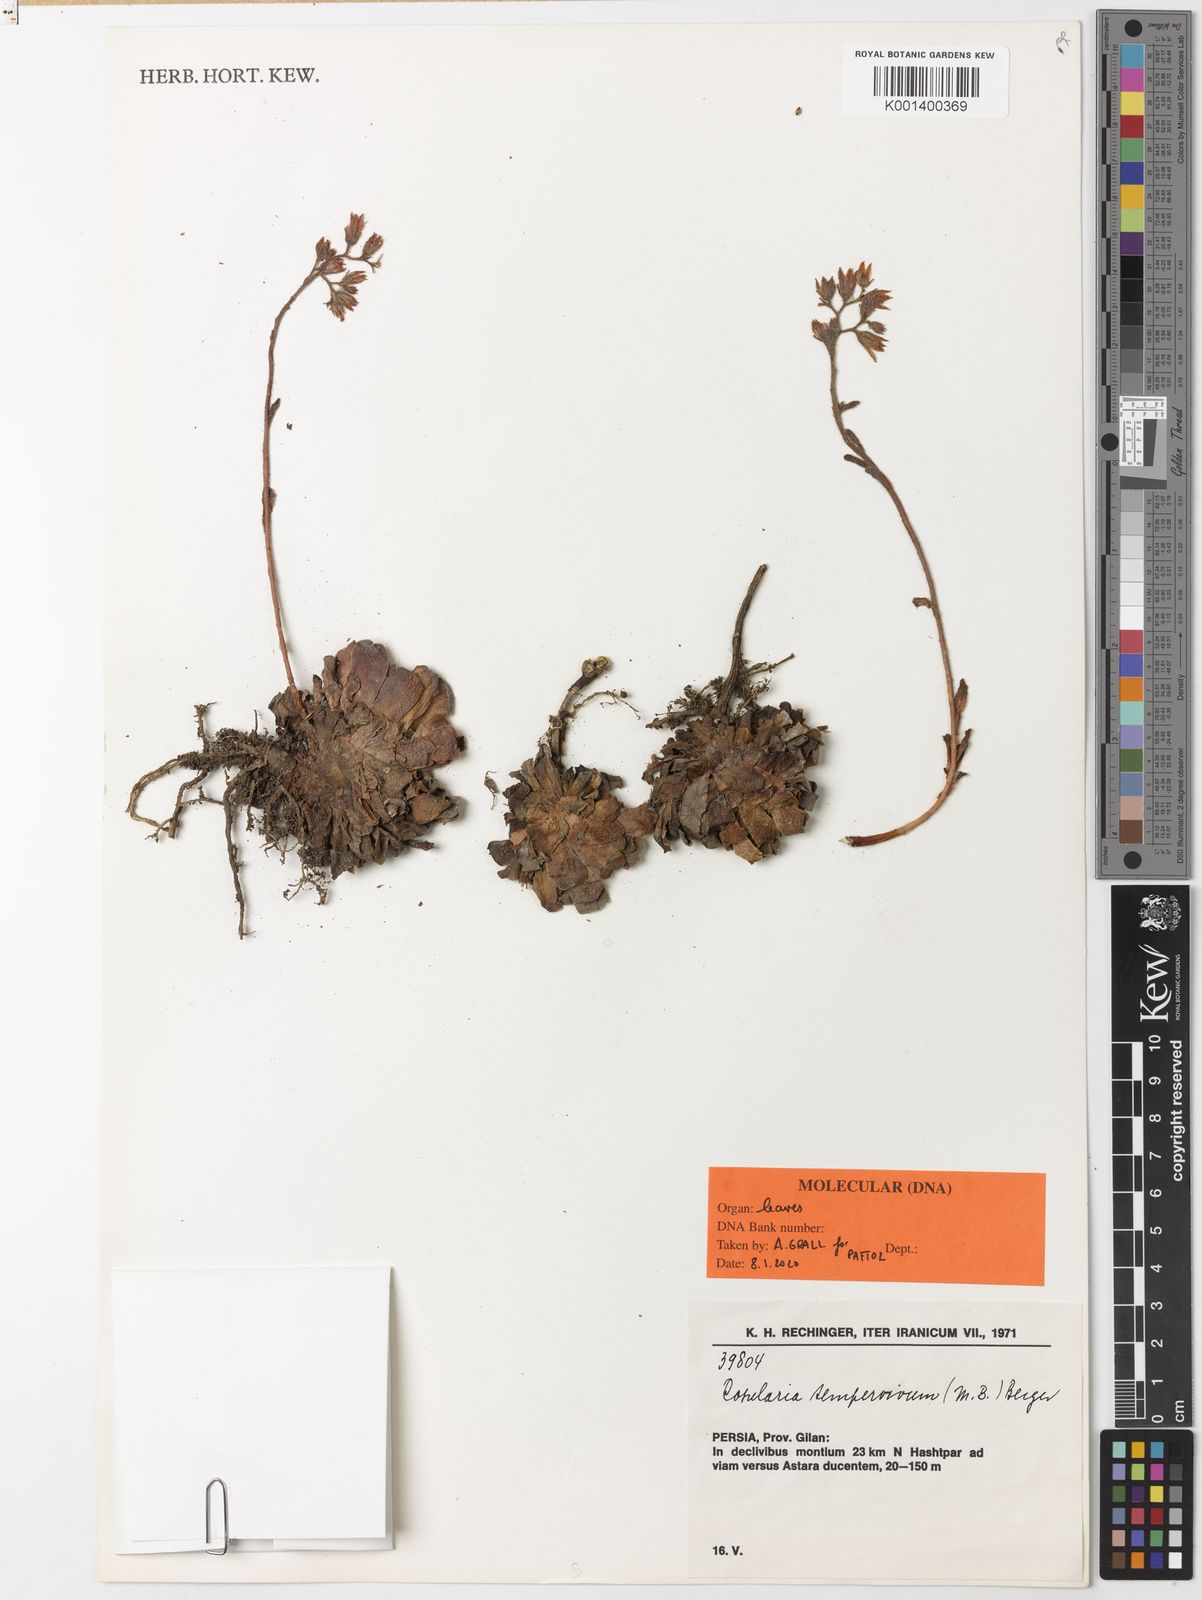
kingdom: Plantae
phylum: Tracheophyta
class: Magnoliopsida
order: Saxifragales
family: Crassulaceae
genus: Rosularia
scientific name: Rosularia sempervivum
